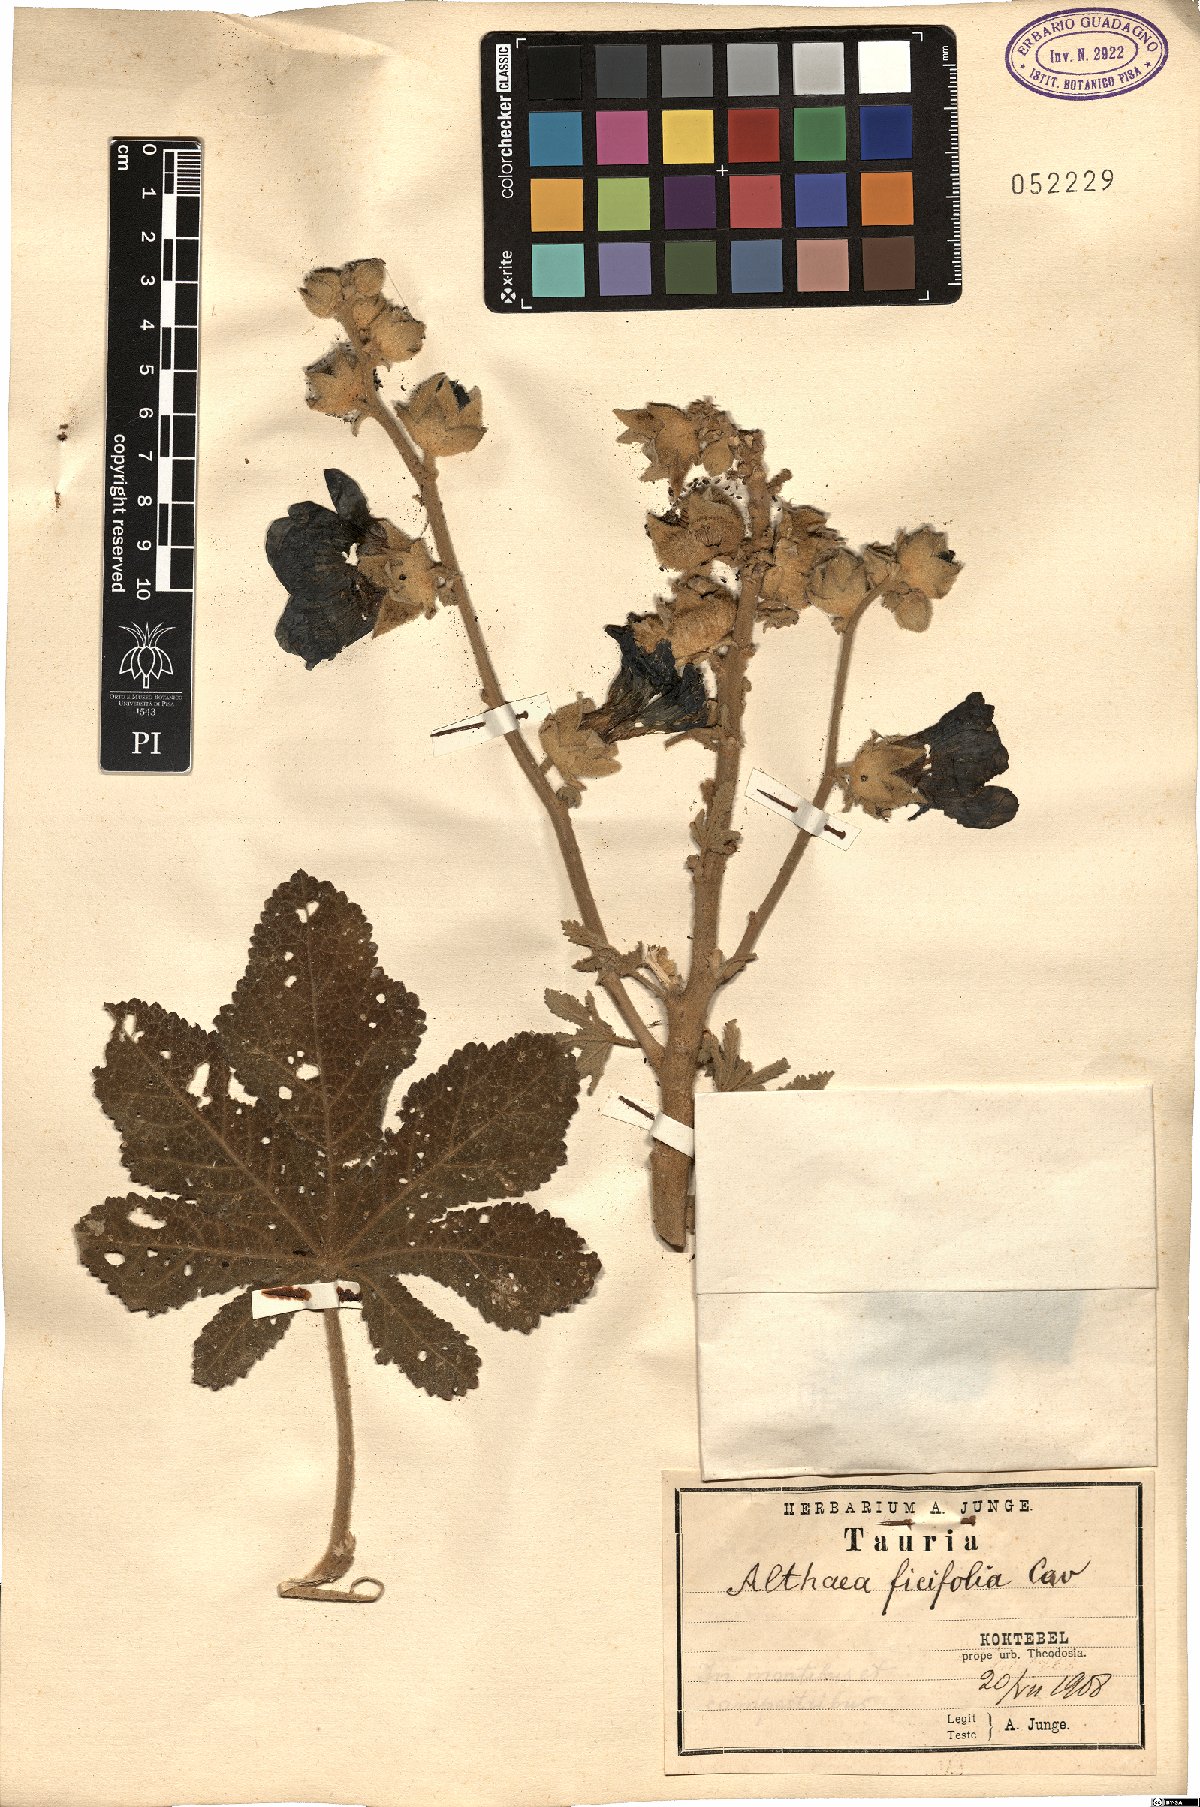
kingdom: Plantae
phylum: Tracheophyta
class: Magnoliopsida
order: Malvales
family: Malvaceae
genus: Alcea
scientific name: Alcea rosea
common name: Hollyhock
